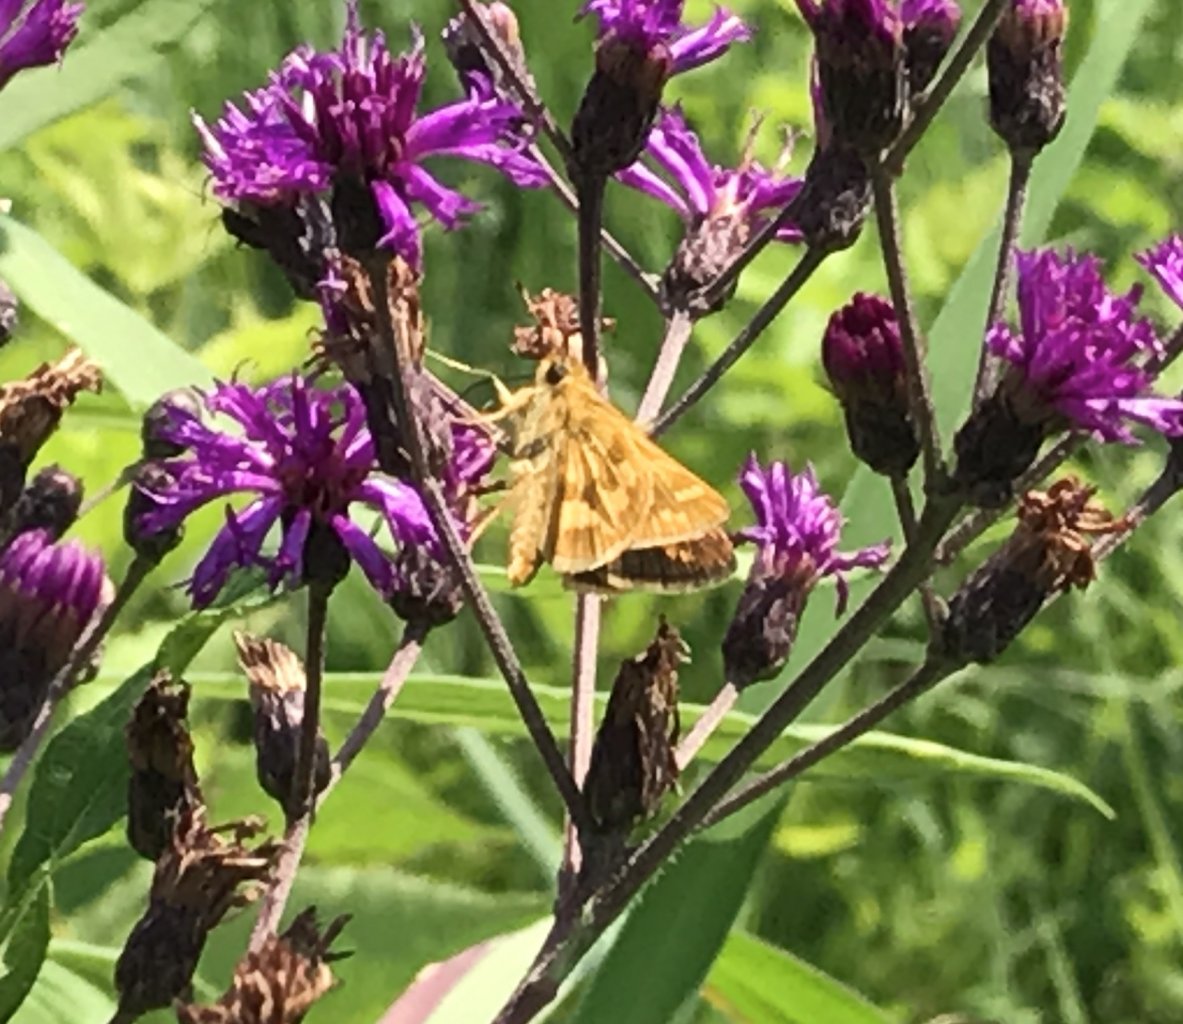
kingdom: Animalia
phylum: Arthropoda
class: Insecta
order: Lepidoptera
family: Hesperiidae
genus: Polites
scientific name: Polites coras
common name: Peck's Skipper
